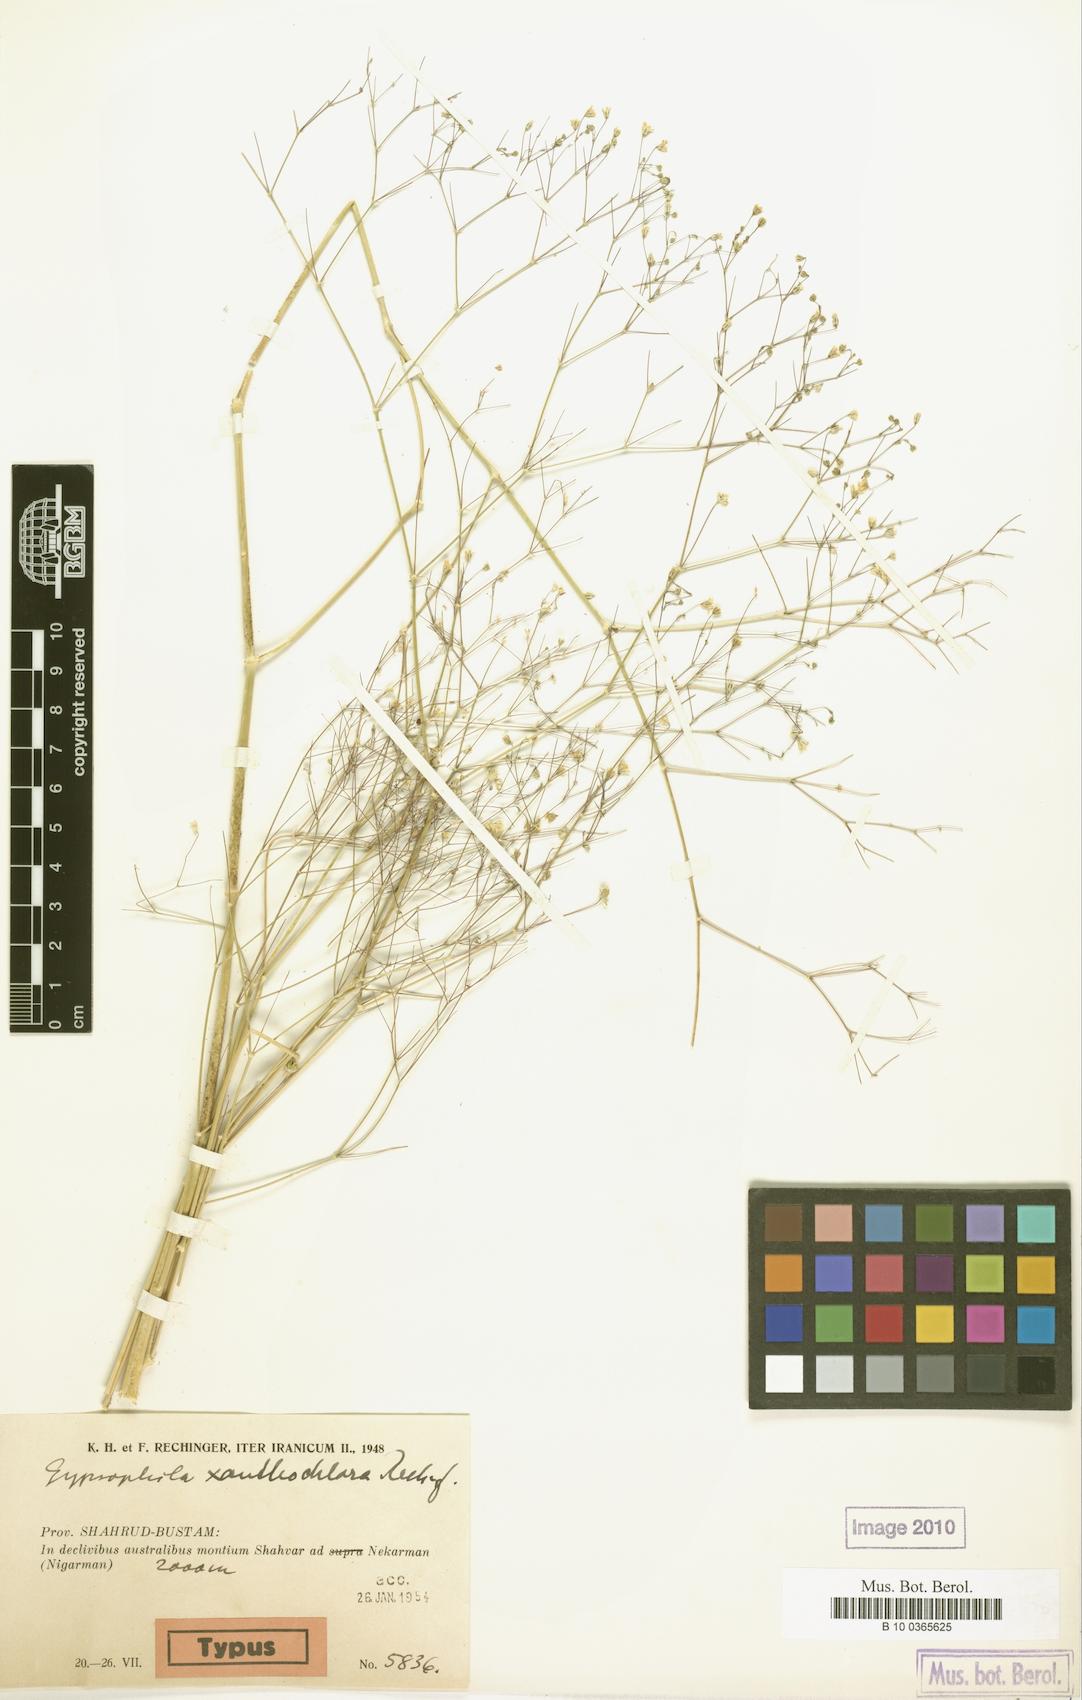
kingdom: Plantae
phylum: Tracheophyta
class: Magnoliopsida
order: Caryophyllales
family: Caryophyllaceae
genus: Gypsophila
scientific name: Gypsophila xanthochlora
